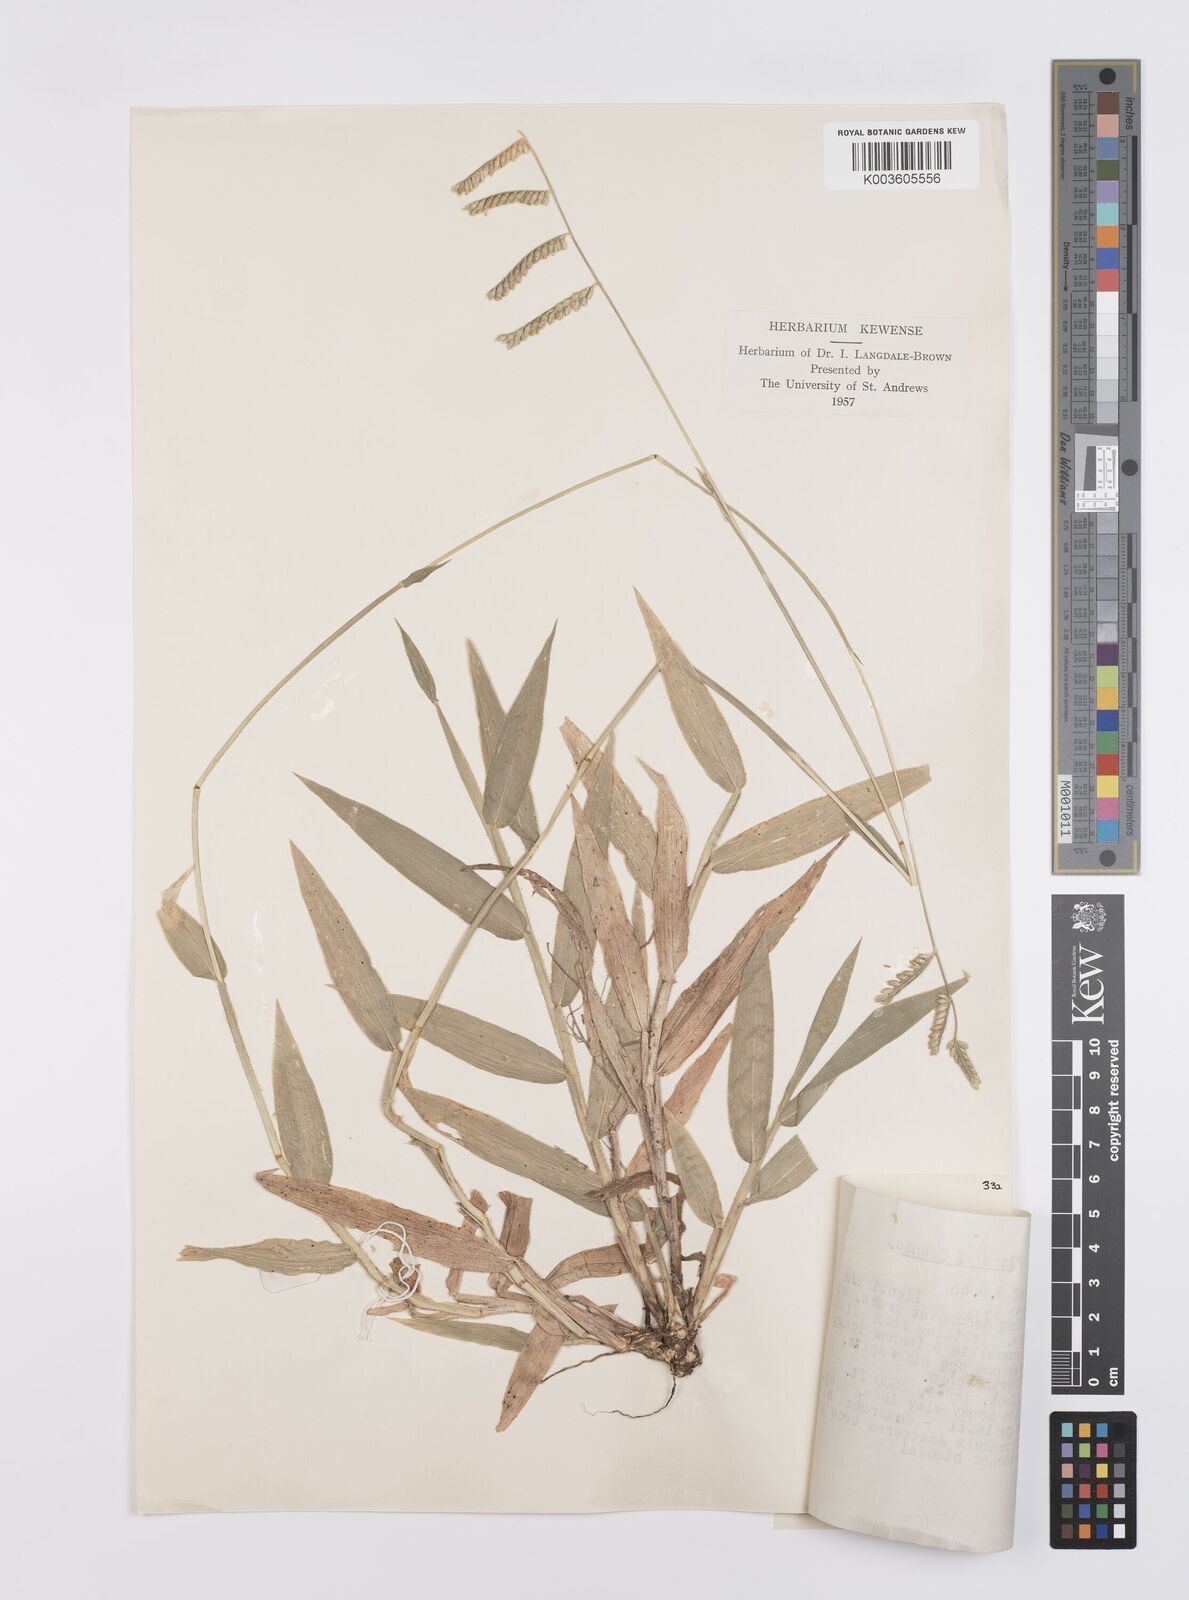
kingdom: Plantae
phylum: Tracheophyta
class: Liliopsida
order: Poales
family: Poaceae
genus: Urochloa
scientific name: Urochloa eminii
